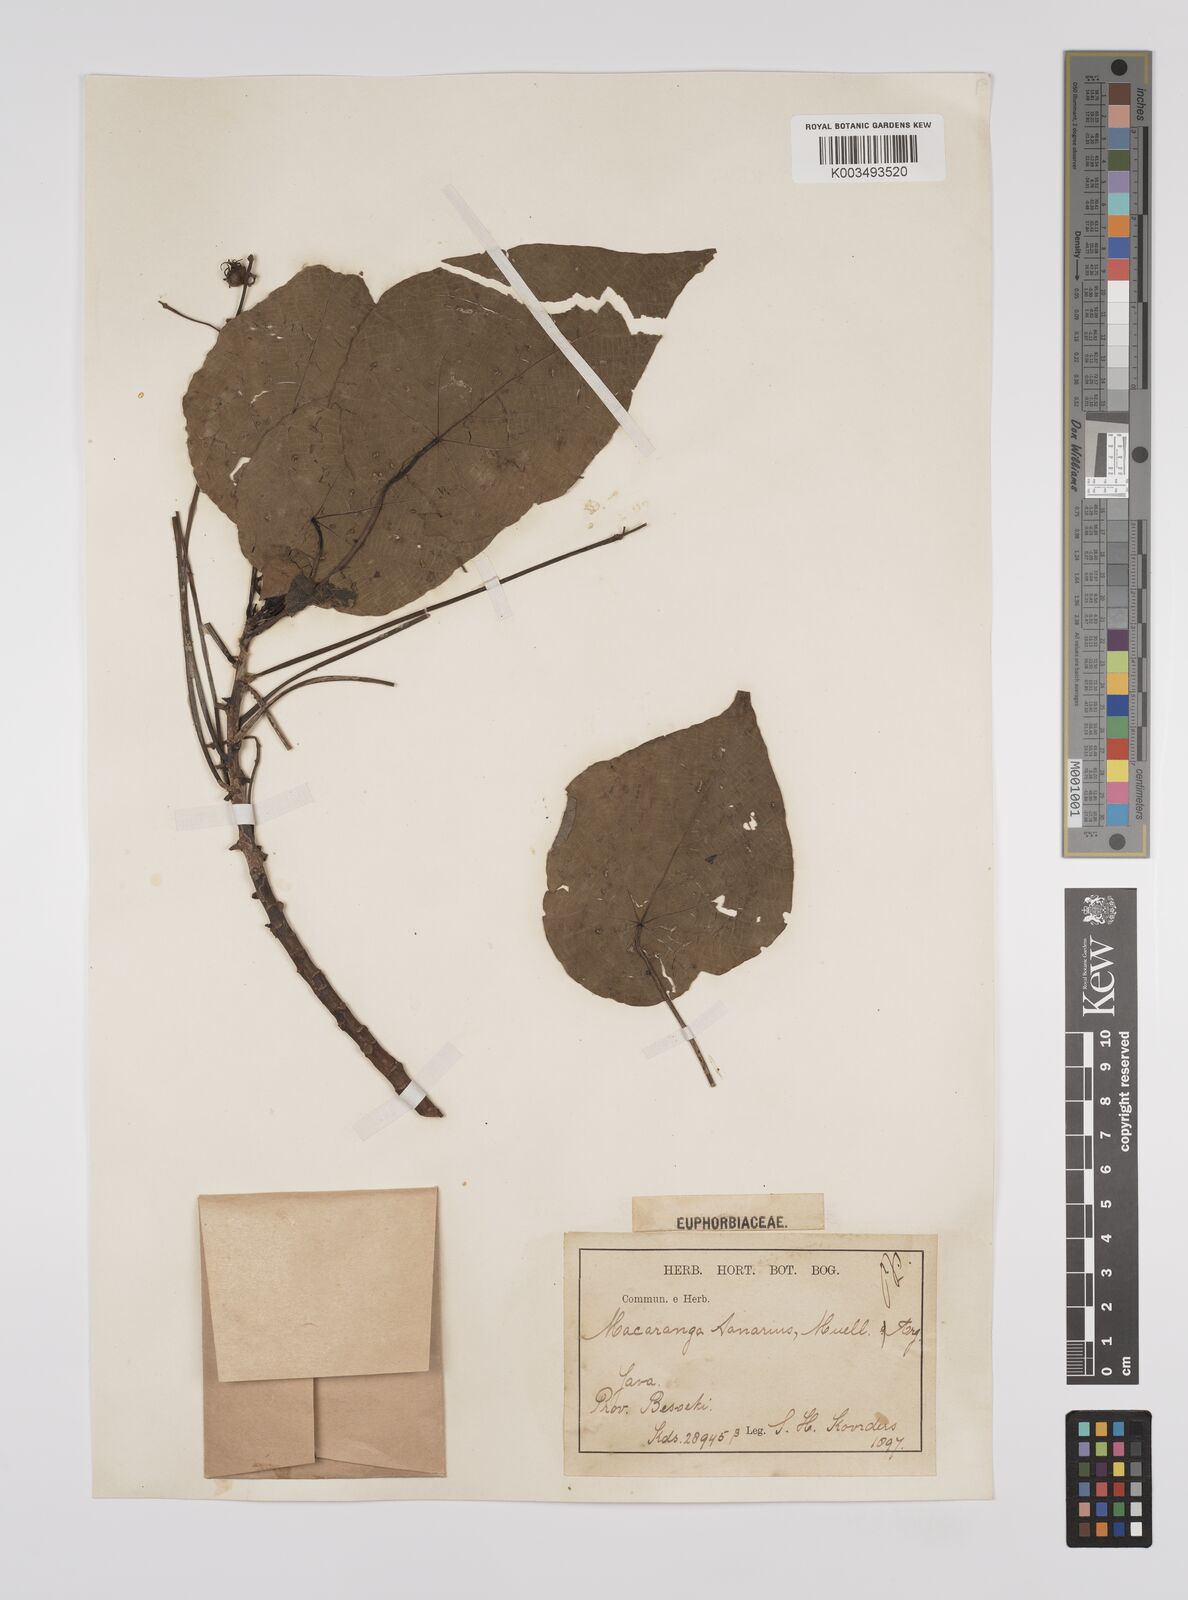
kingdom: Plantae
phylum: Tracheophyta
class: Magnoliopsida
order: Malpighiales
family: Euphorbiaceae
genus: Macaranga
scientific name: Macaranga tanarius
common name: Parasol leaf tree
